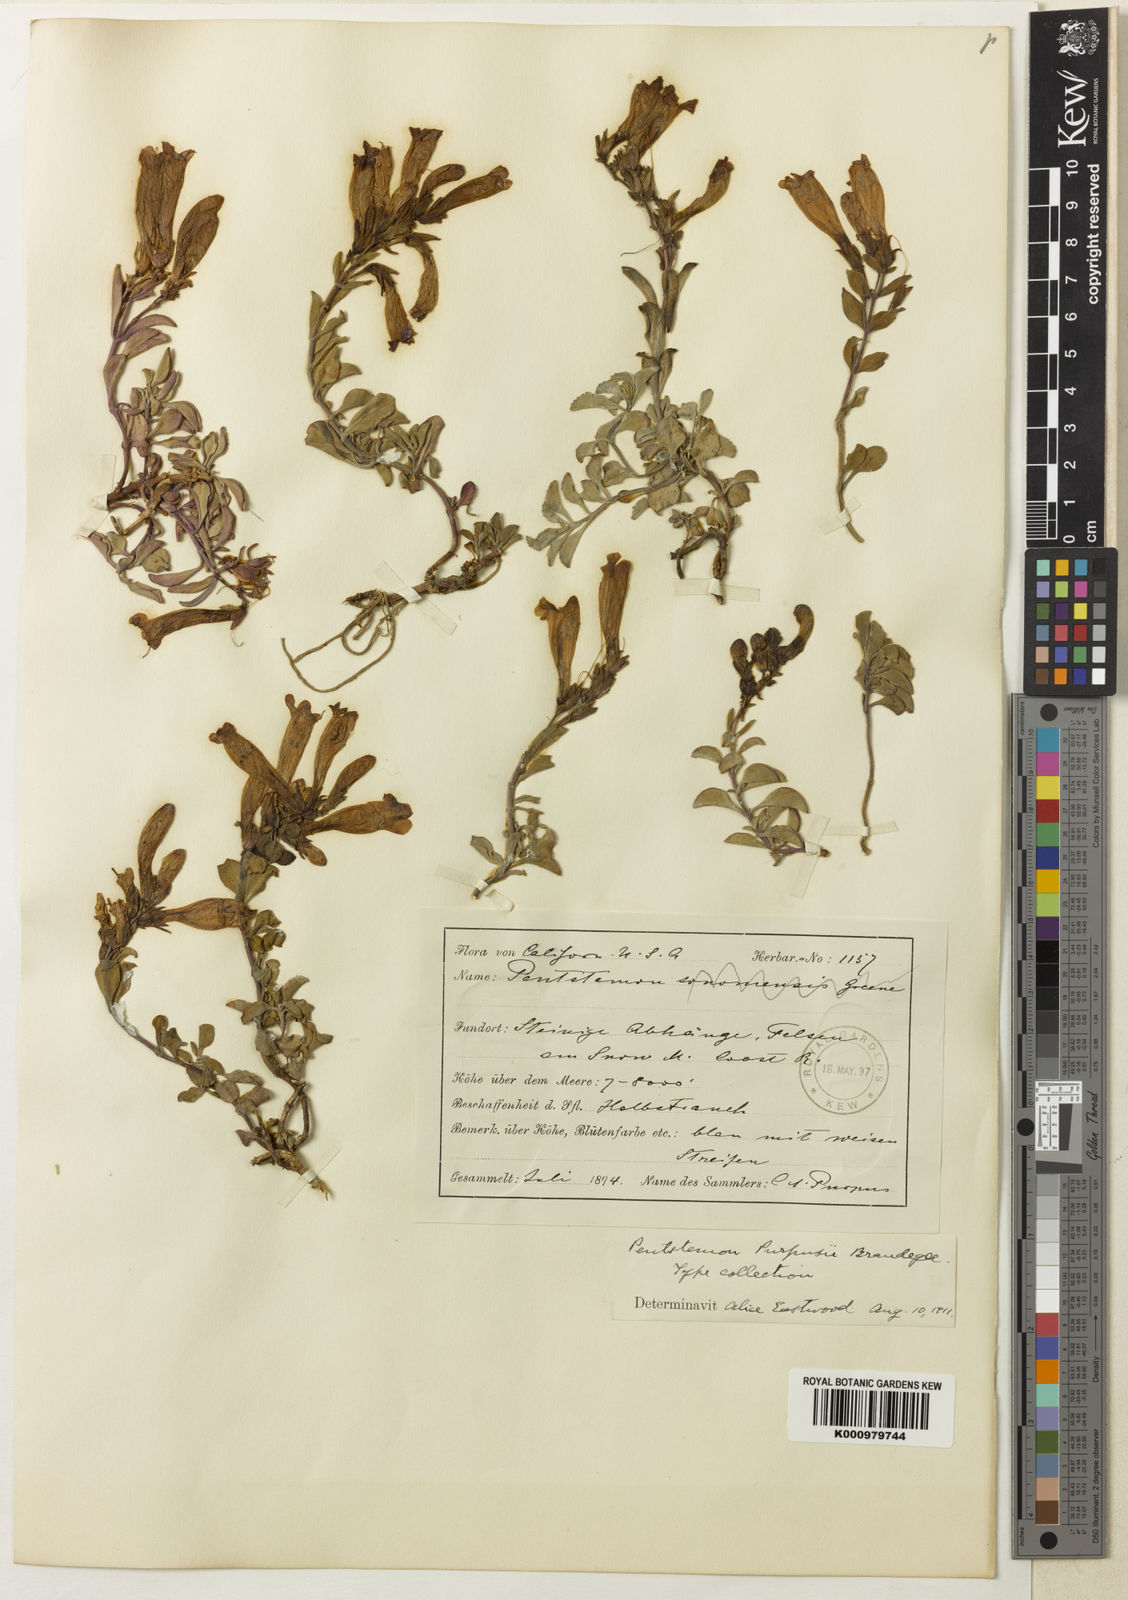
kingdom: Plantae
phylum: Tracheophyta
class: Magnoliopsida
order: Lamiales
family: Plantaginaceae
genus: Penstemon
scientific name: Penstemon purpusii
